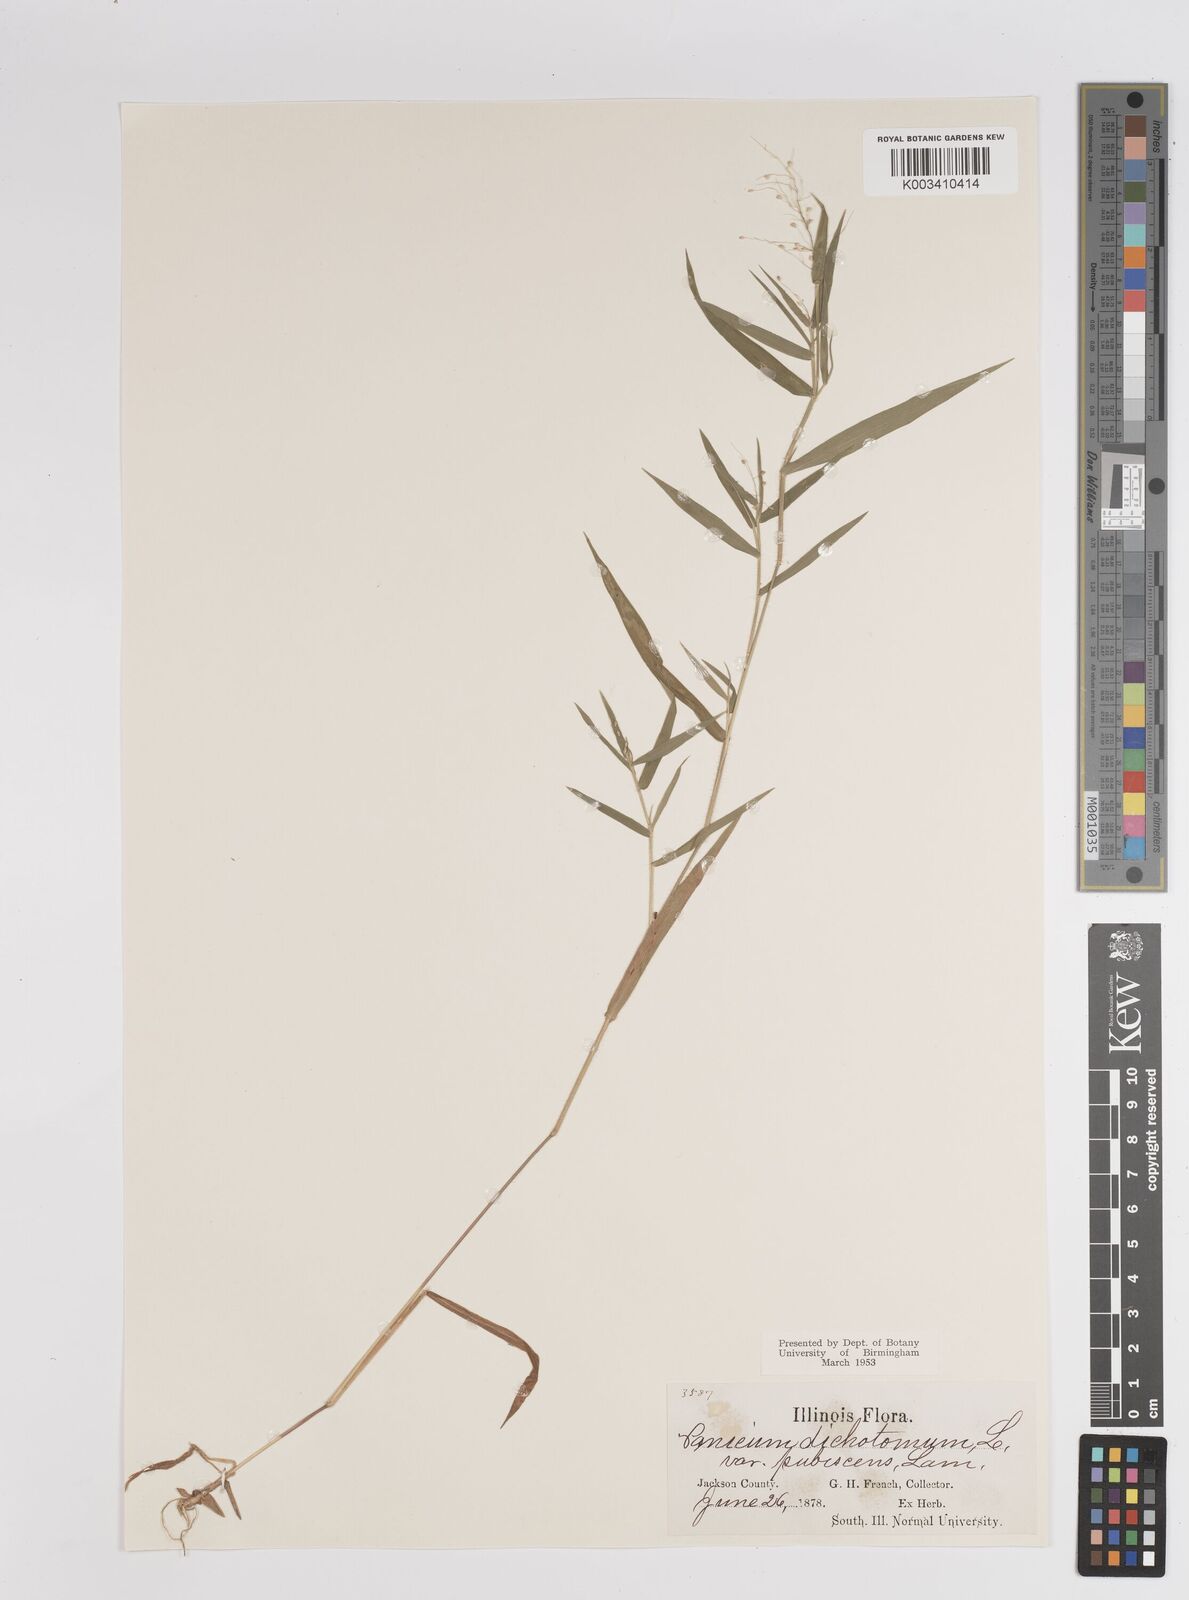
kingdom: Plantae
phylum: Tracheophyta
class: Liliopsida
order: Poales
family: Poaceae
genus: Dichanthelium
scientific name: Dichanthelium dichotomum
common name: Cypress panicgrass
